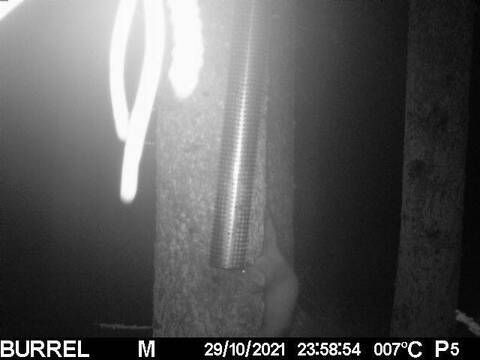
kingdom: Animalia
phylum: Chordata
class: Mammalia
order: Carnivora
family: Mustelidae
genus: Martes
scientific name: Martes martes
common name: European pine marten
